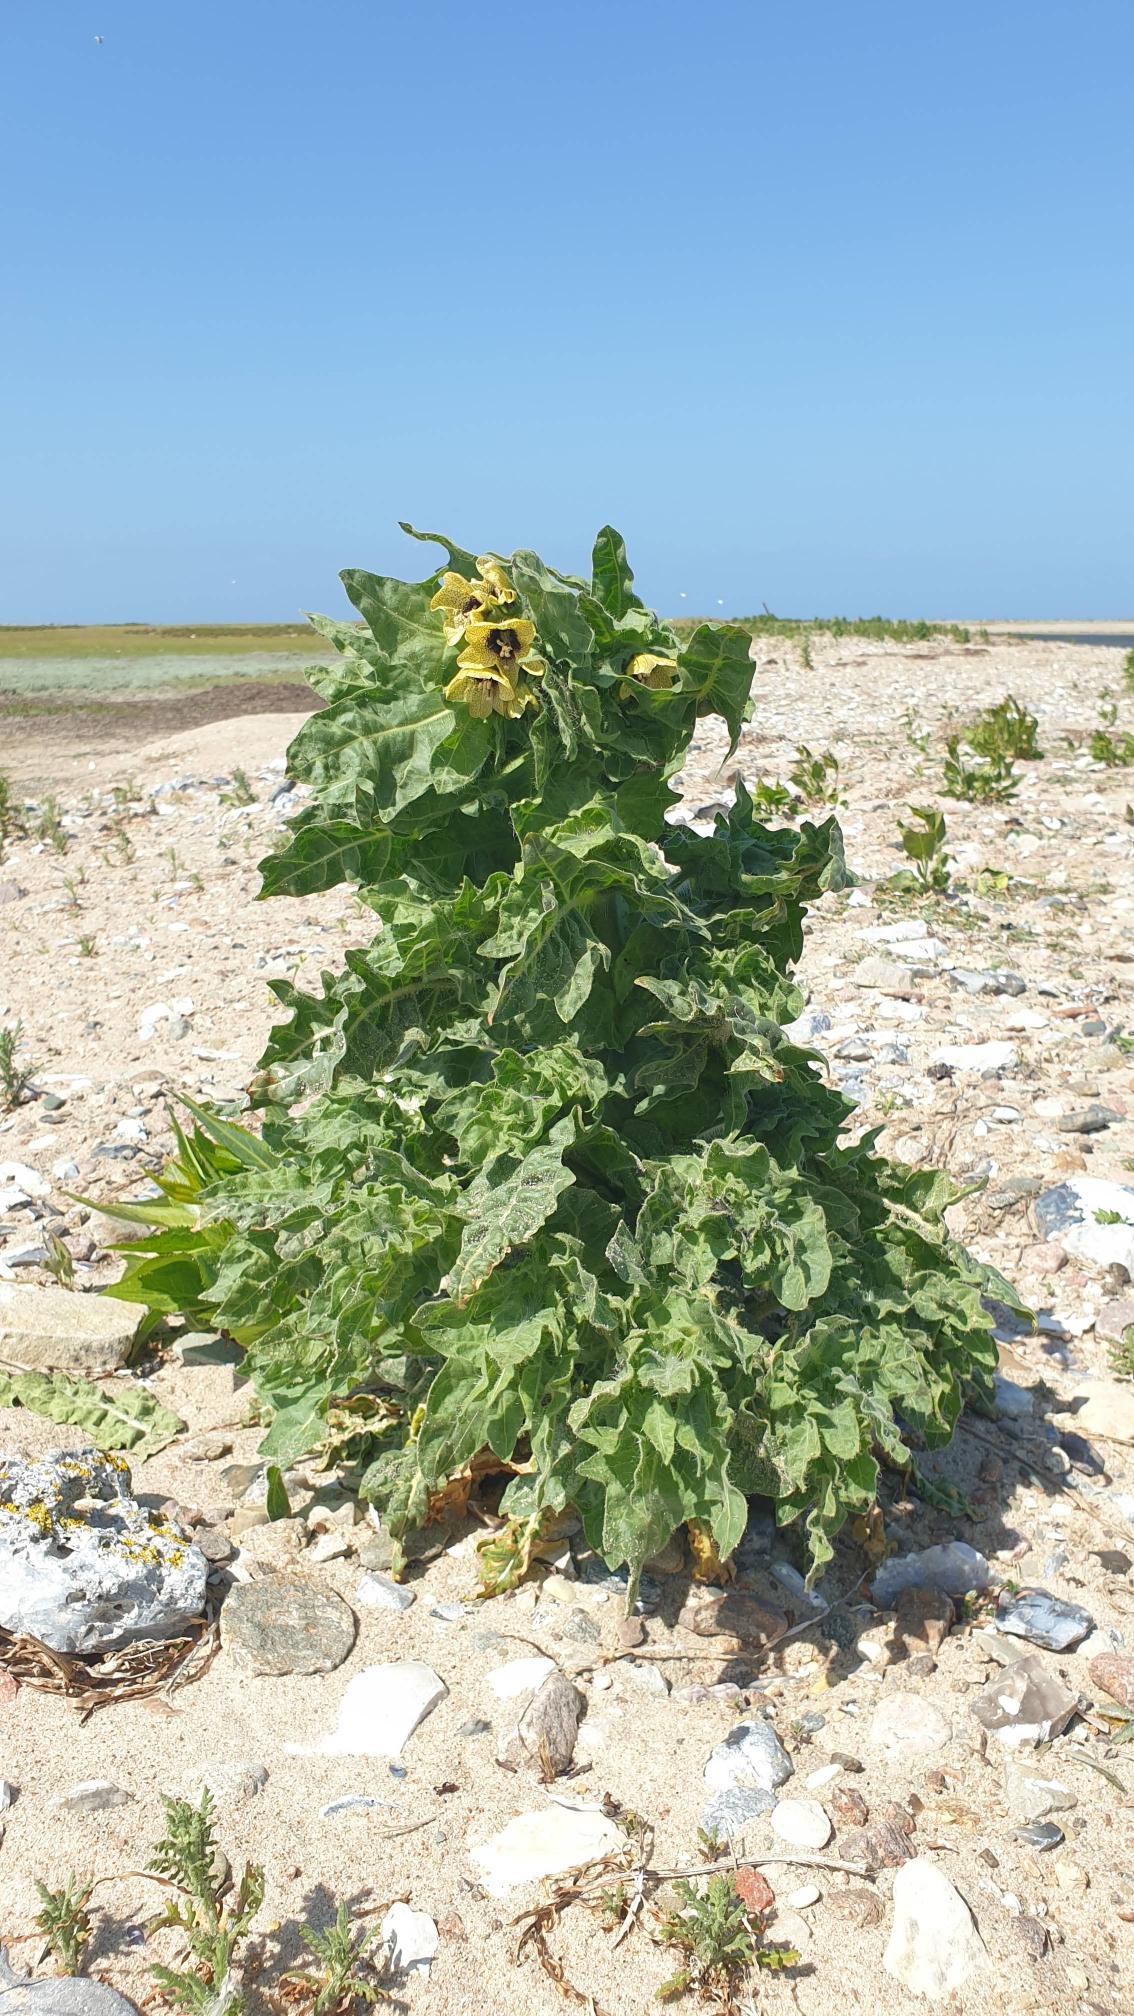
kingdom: Plantae
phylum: Tracheophyta
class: Magnoliopsida
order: Solanales
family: Solanaceae
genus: Hyoscyamus
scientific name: Hyoscyamus niger
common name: Bulmeurt
